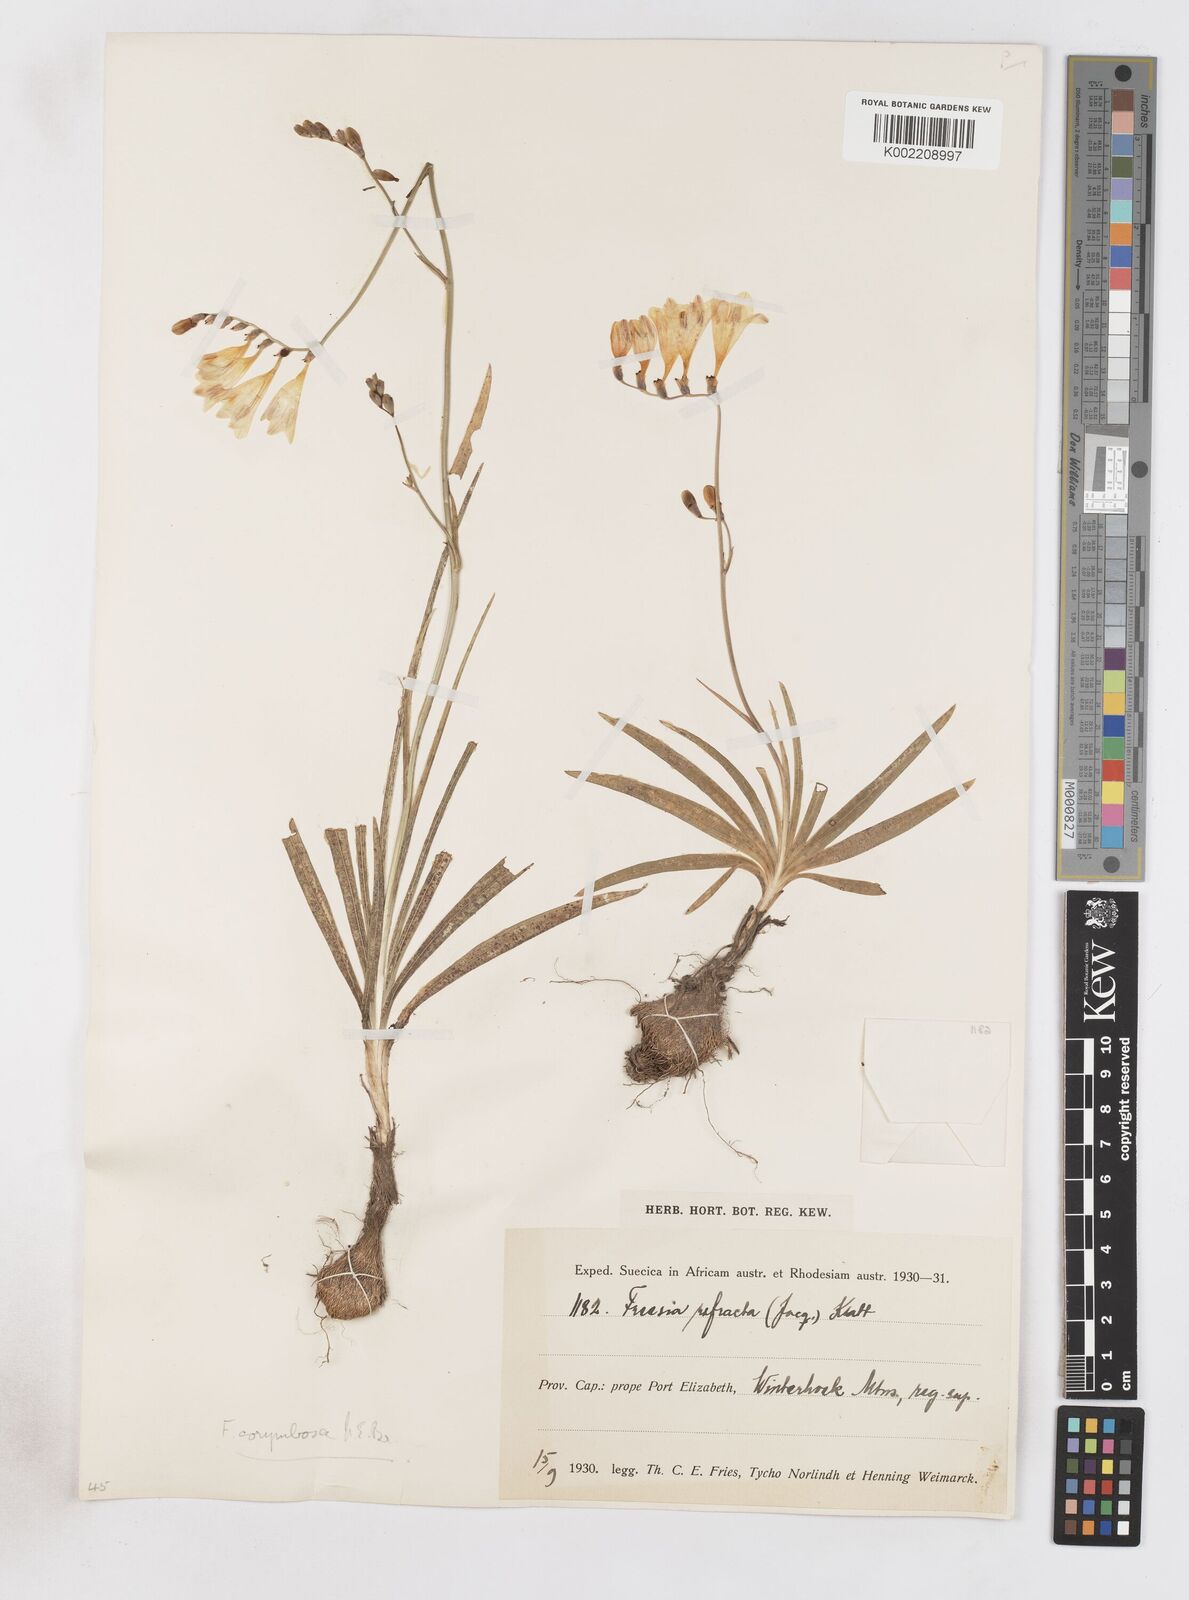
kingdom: Plantae
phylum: Tracheophyta
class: Liliopsida
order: Asparagales
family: Iridaceae
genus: Freesia
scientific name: Freesia corymbosa
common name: Common freesia
